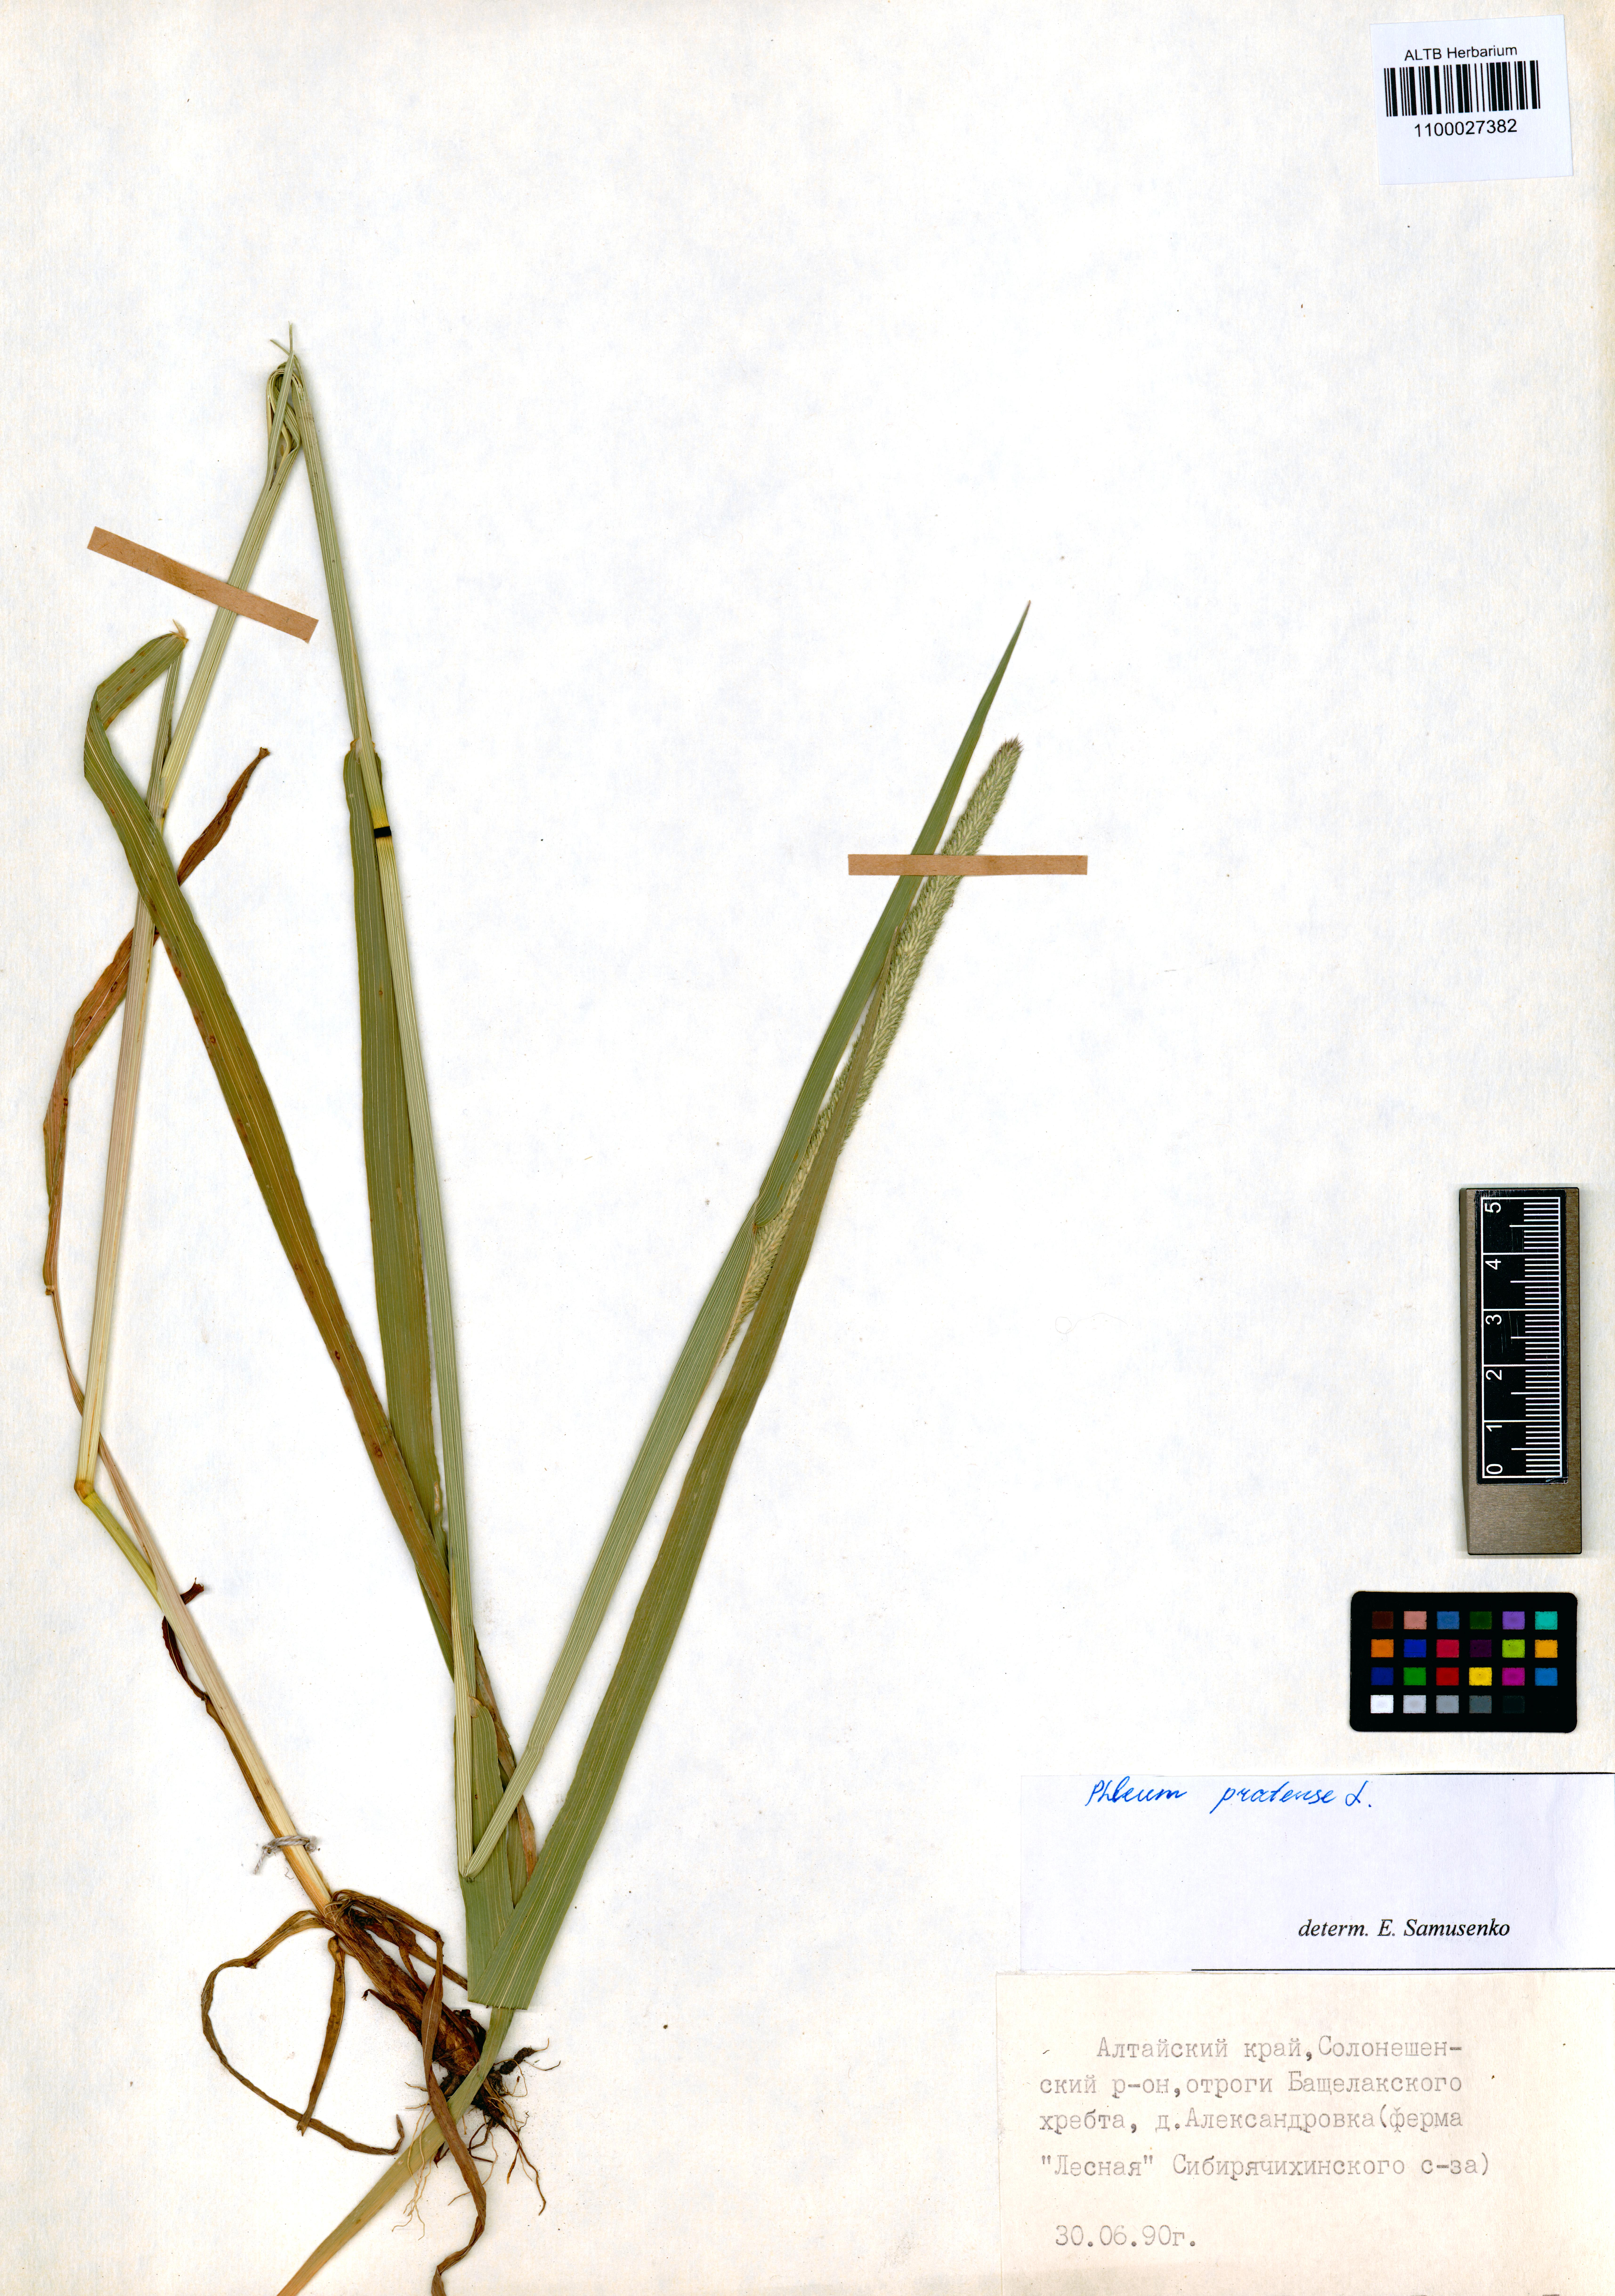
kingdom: Plantae
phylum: Tracheophyta
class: Liliopsida
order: Poales
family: Poaceae
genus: Phleum
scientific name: Phleum pratense
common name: Timothy grass
